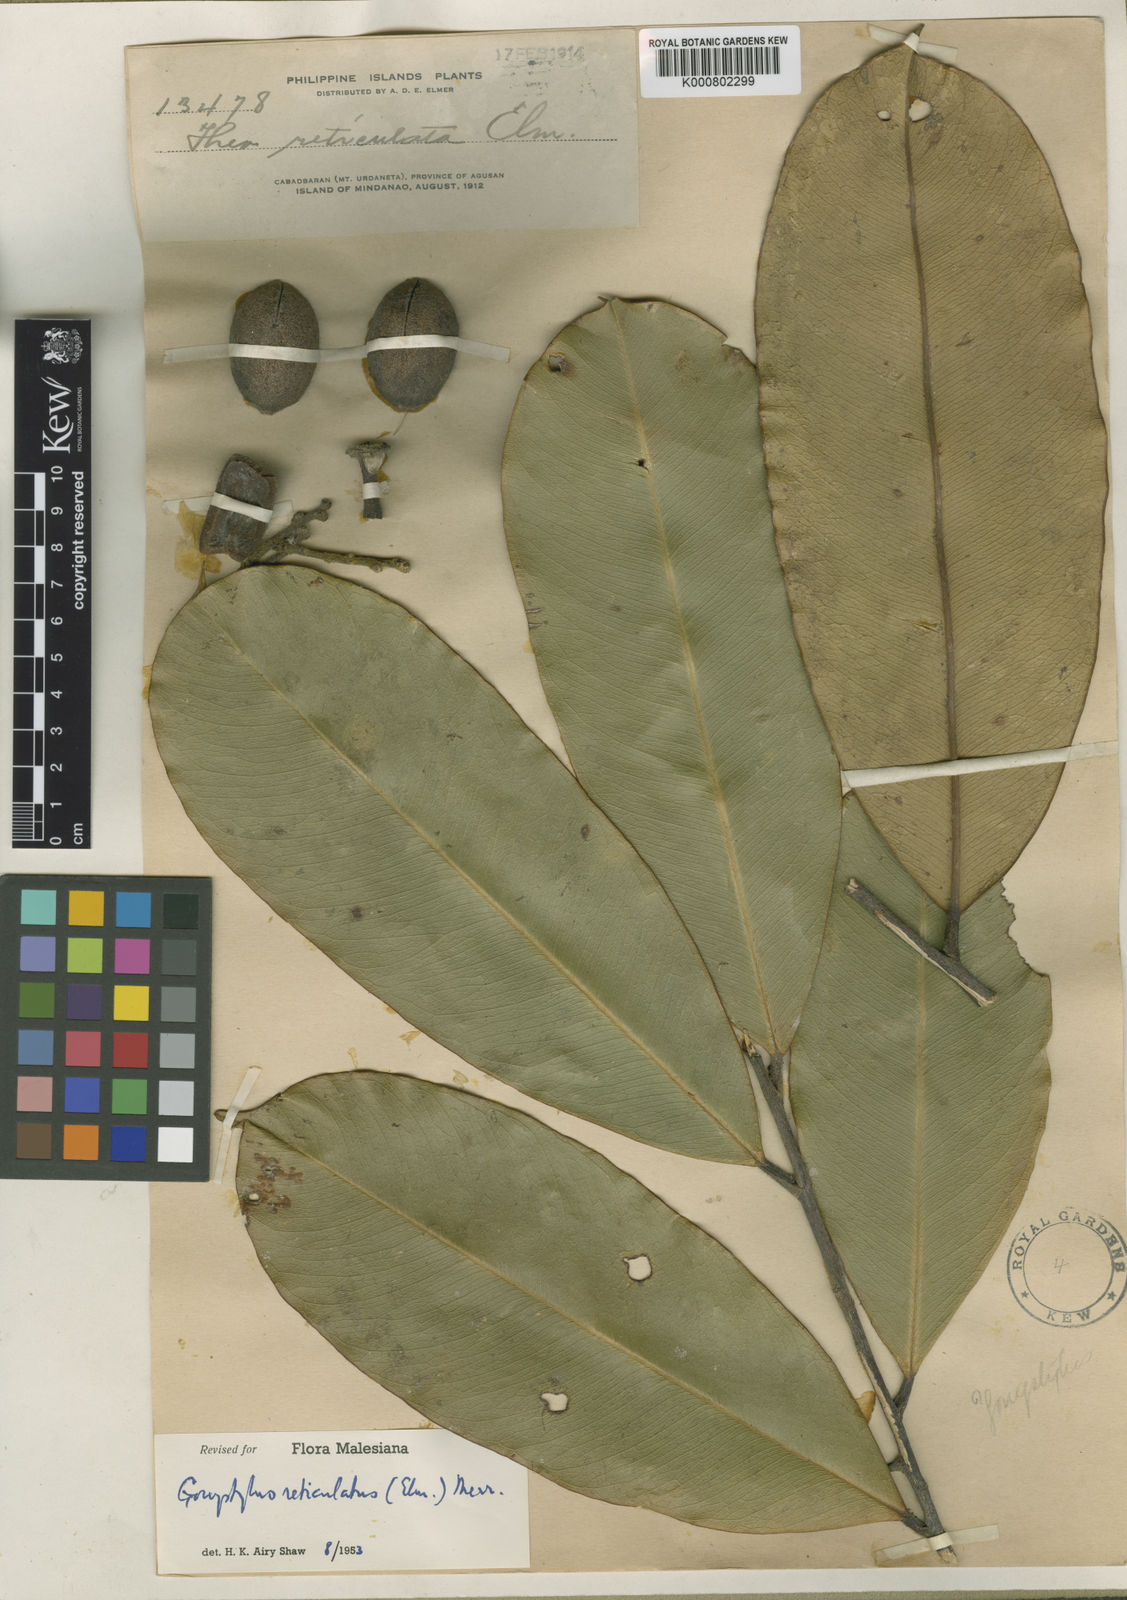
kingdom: Plantae
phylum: Tracheophyta
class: Magnoliopsida
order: Malvales
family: Thymelaeaceae
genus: Gonystylus
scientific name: Gonystylus reticulatus
